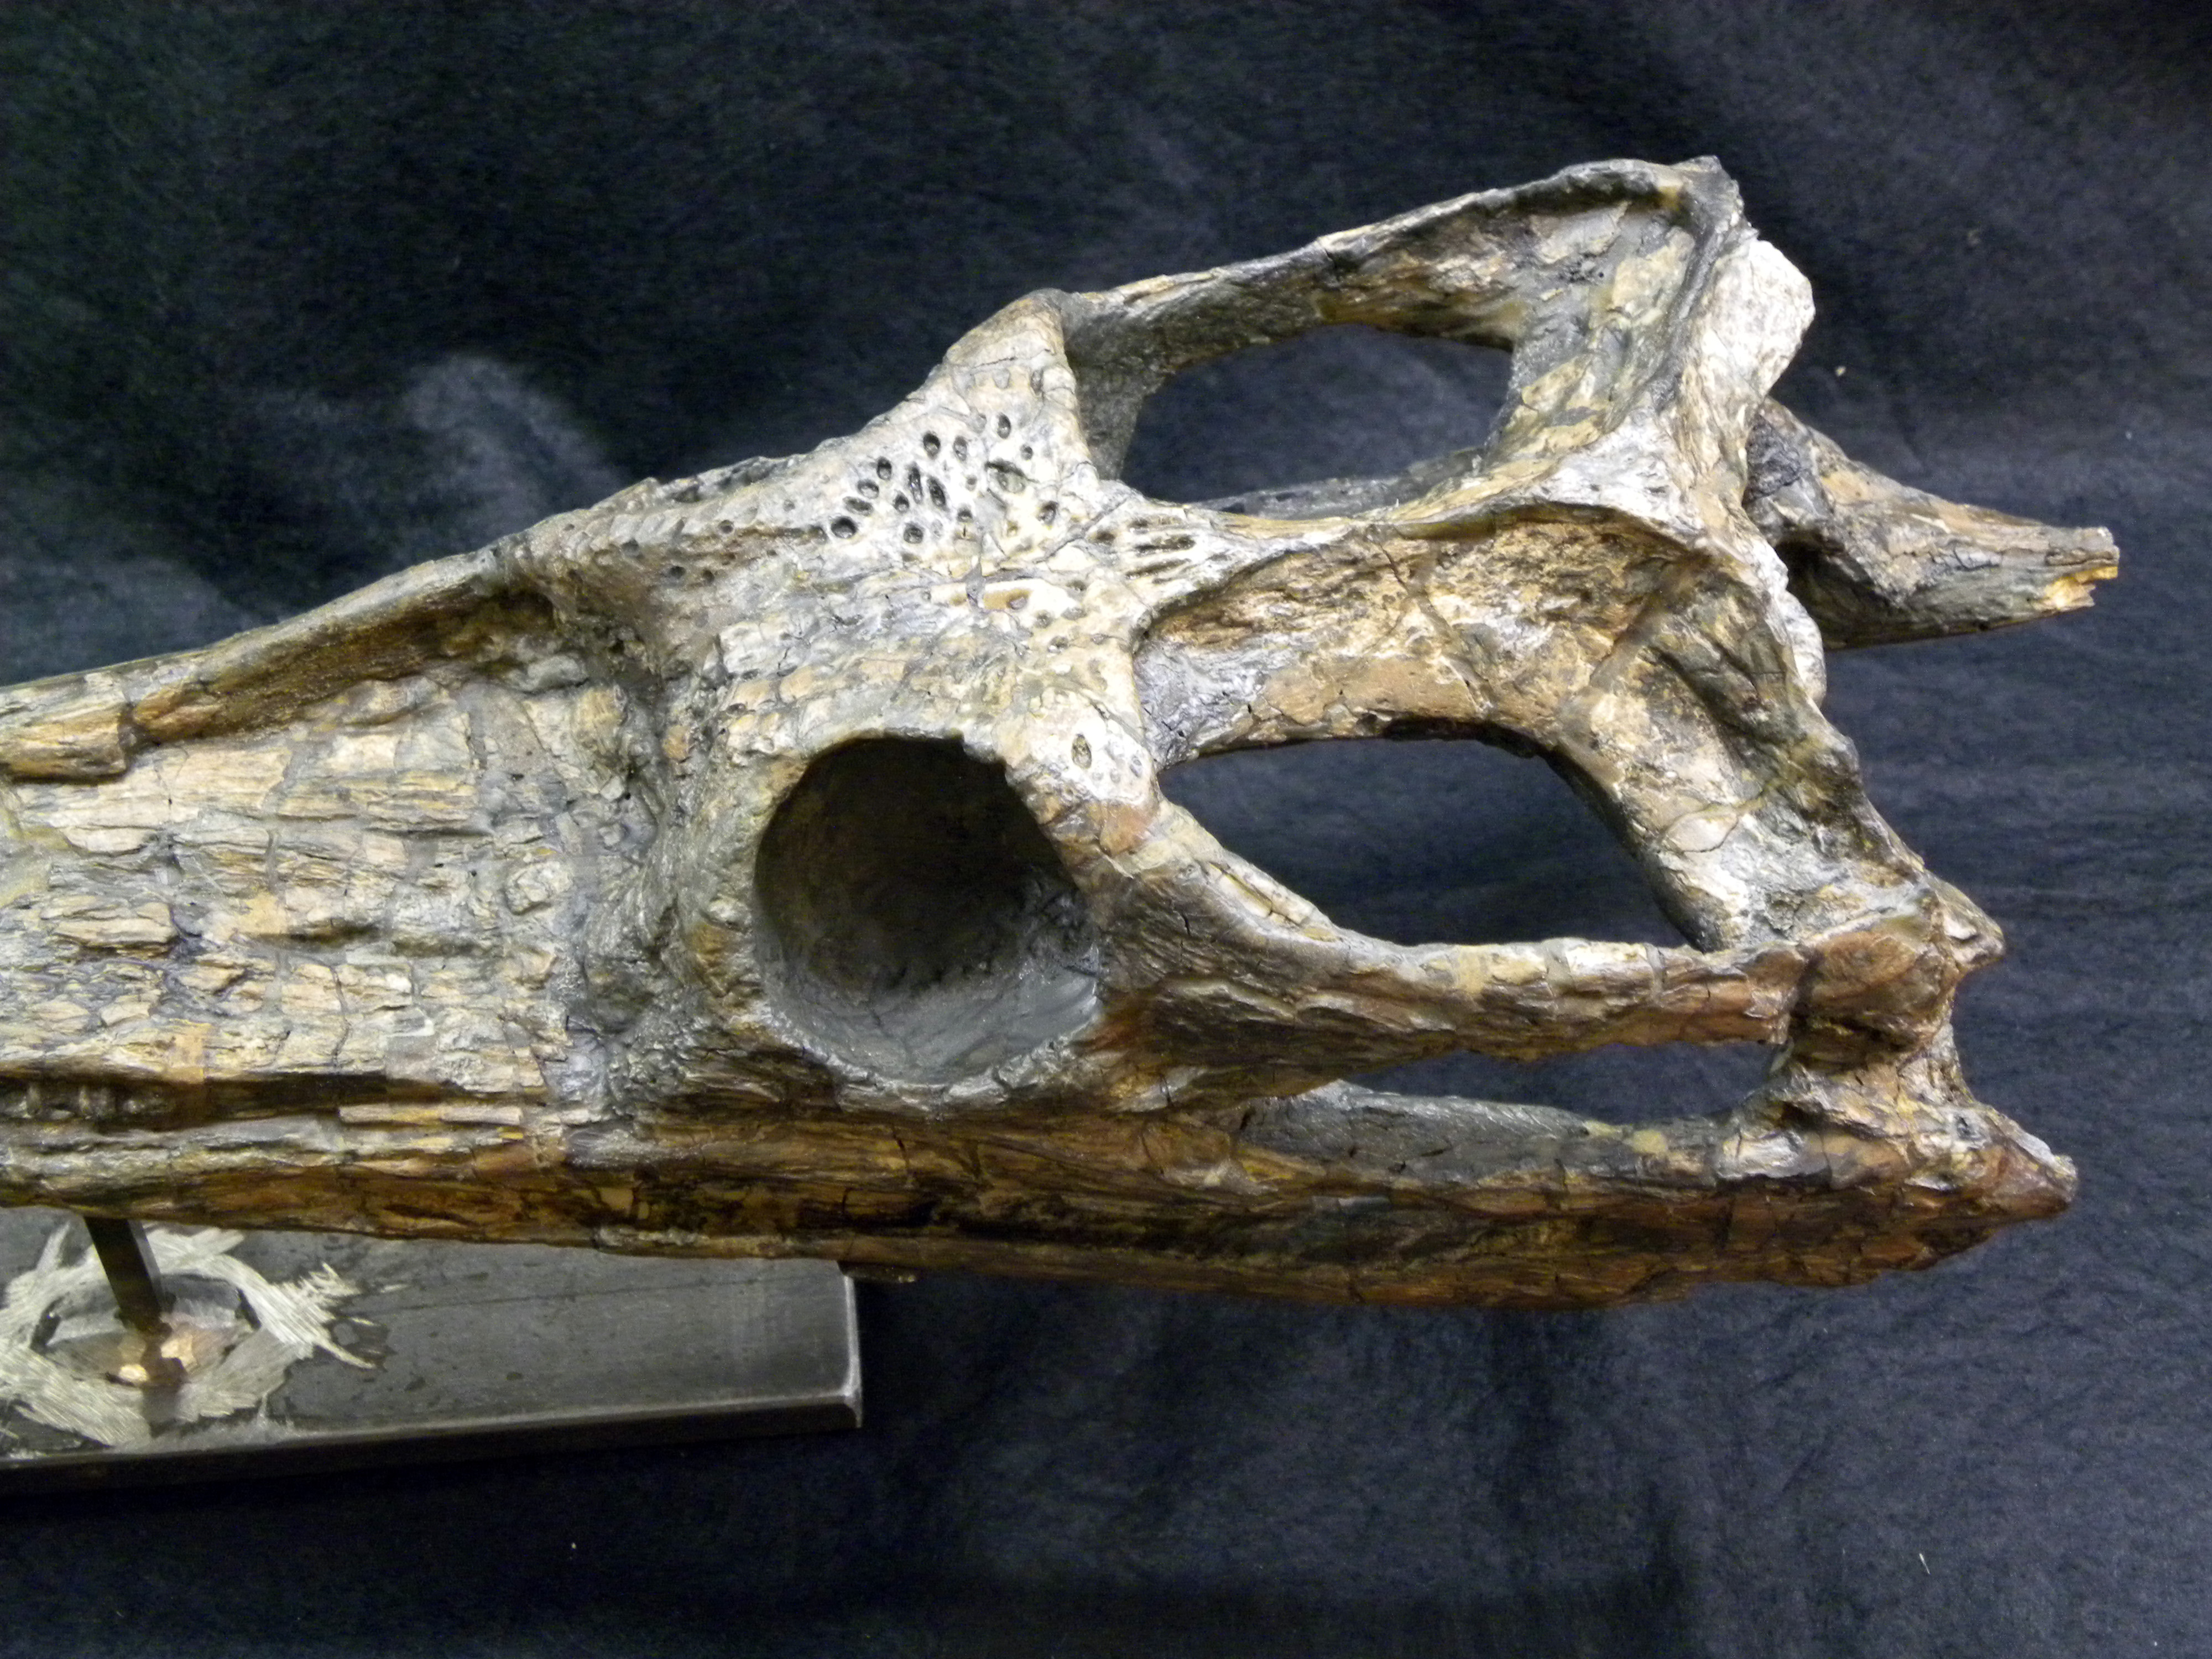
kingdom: Animalia
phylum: Chordata
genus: Plagiophthalmosuchus
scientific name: Plagiophthalmosuchus Steneosaurus gracilirostris
